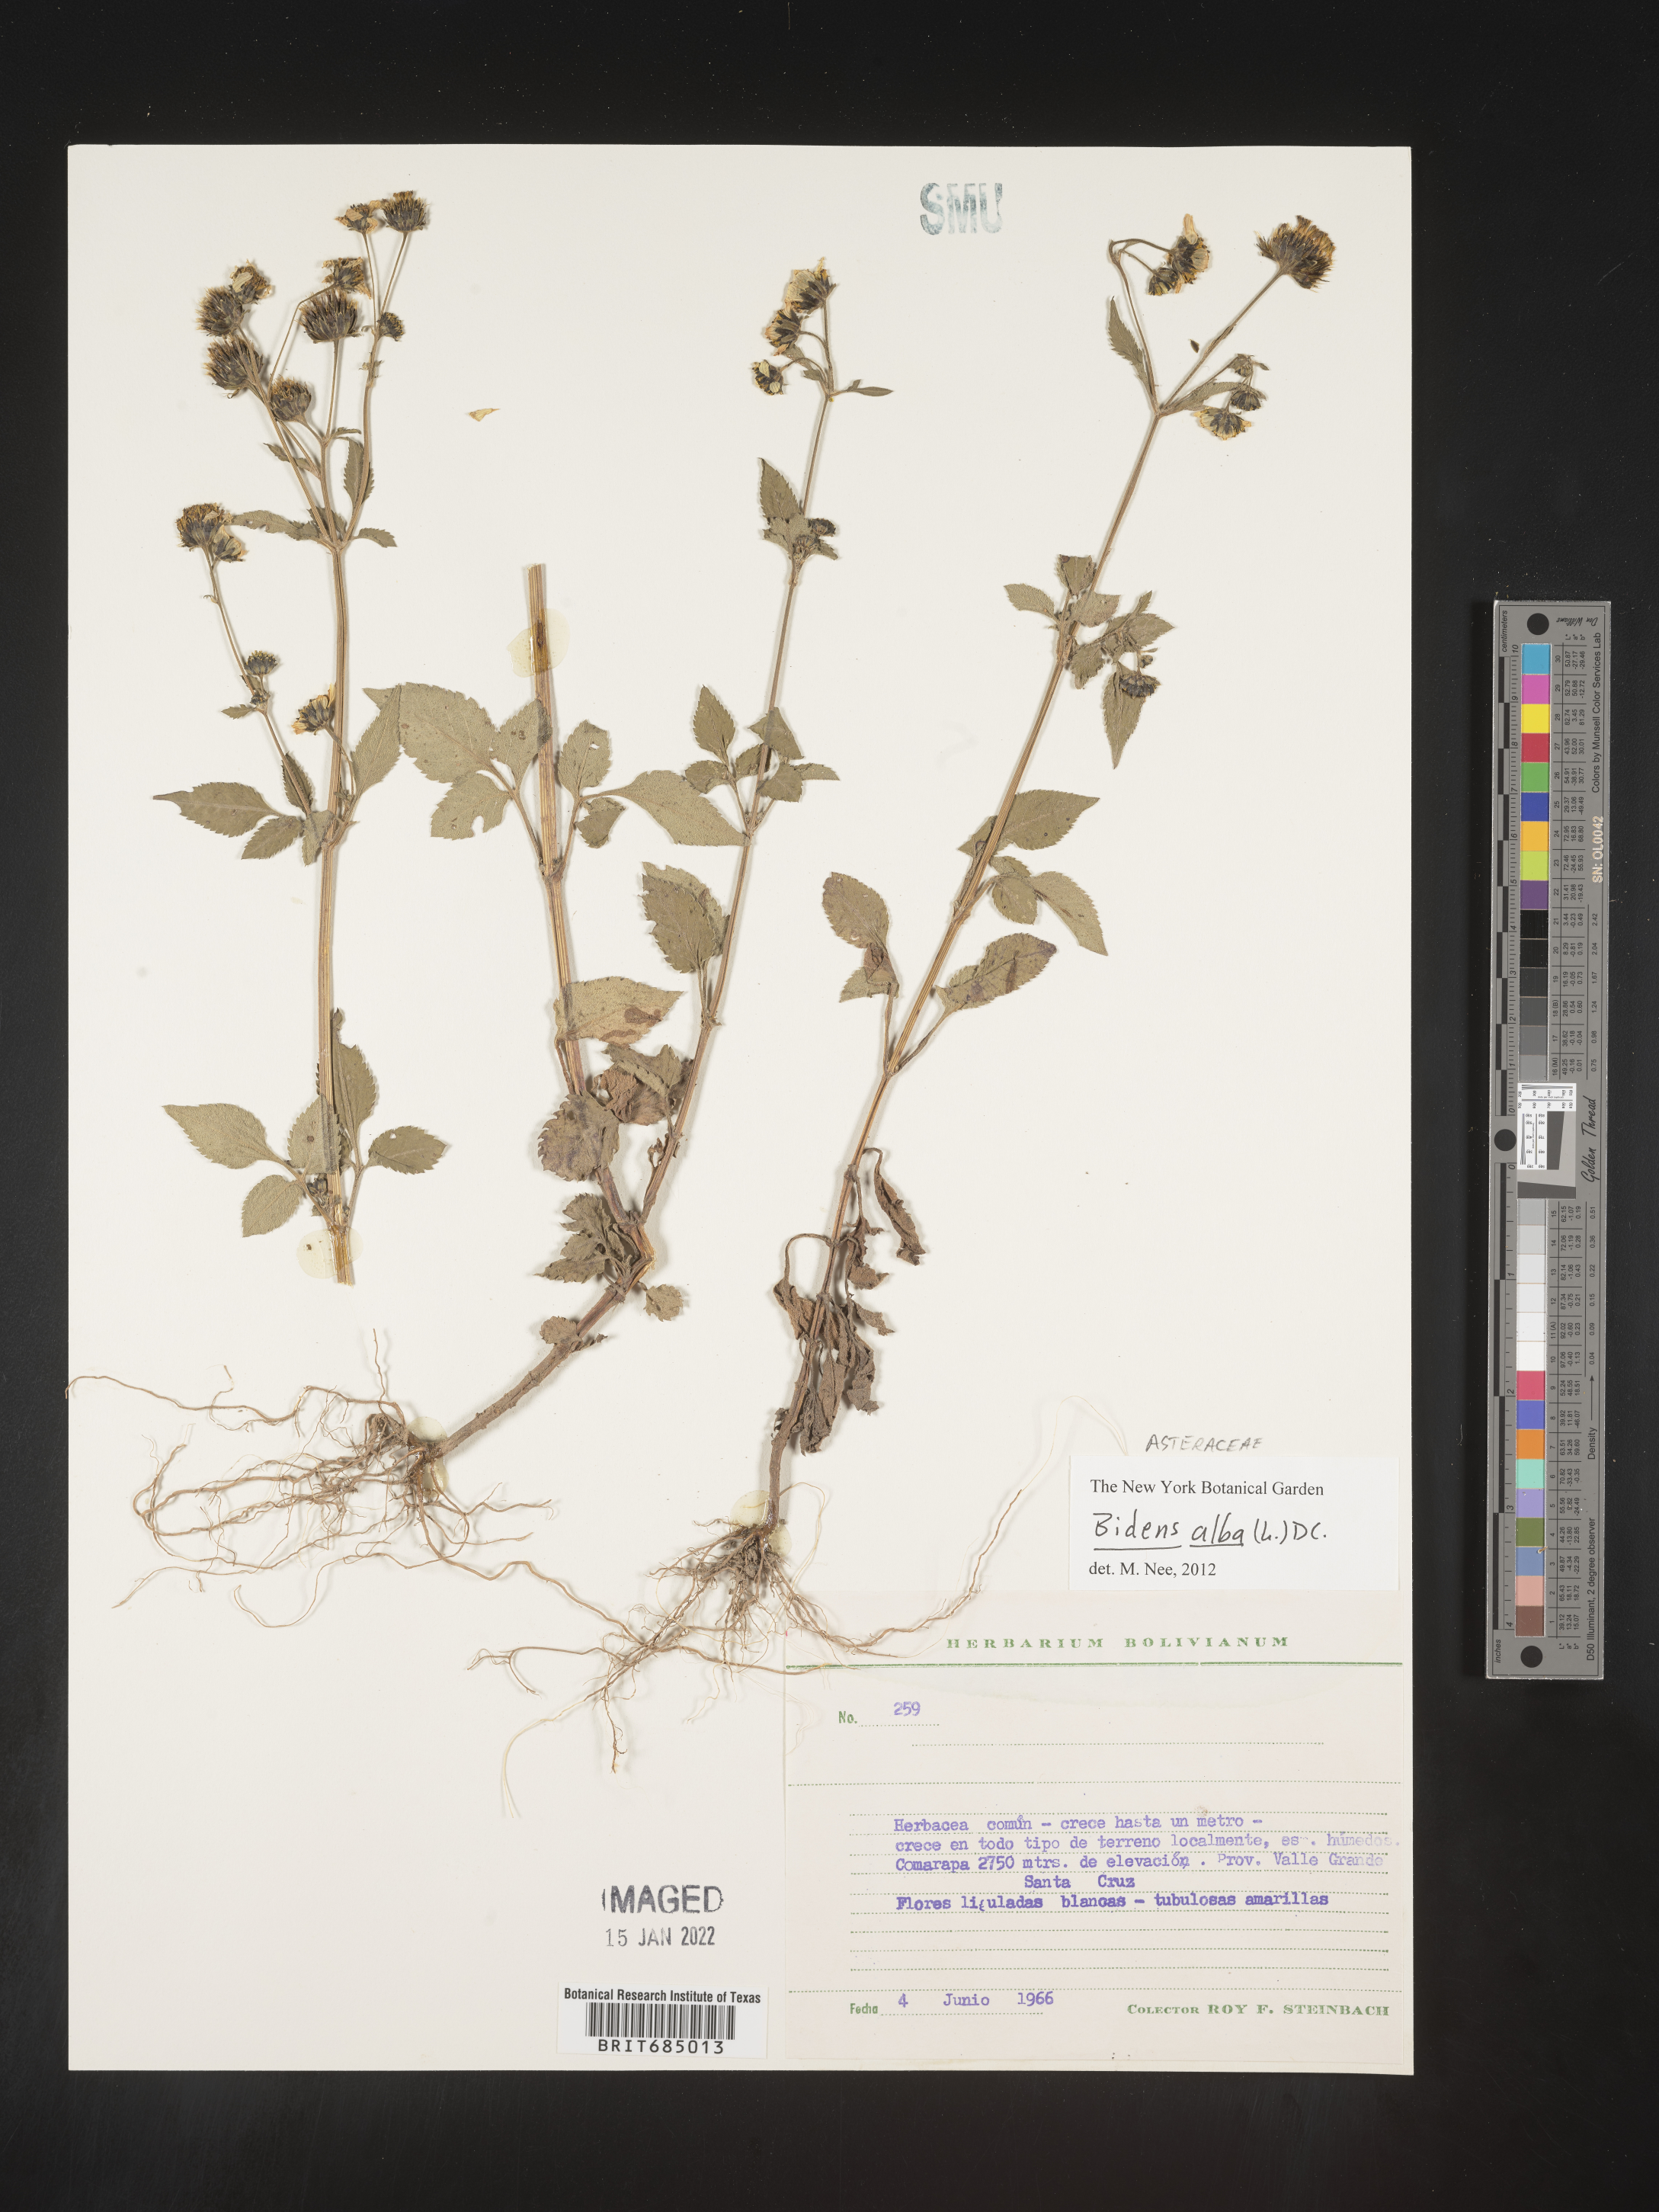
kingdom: Plantae
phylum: Tracheophyta
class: Magnoliopsida
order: Asterales
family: Asteraceae
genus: Bidens
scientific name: Bidens
